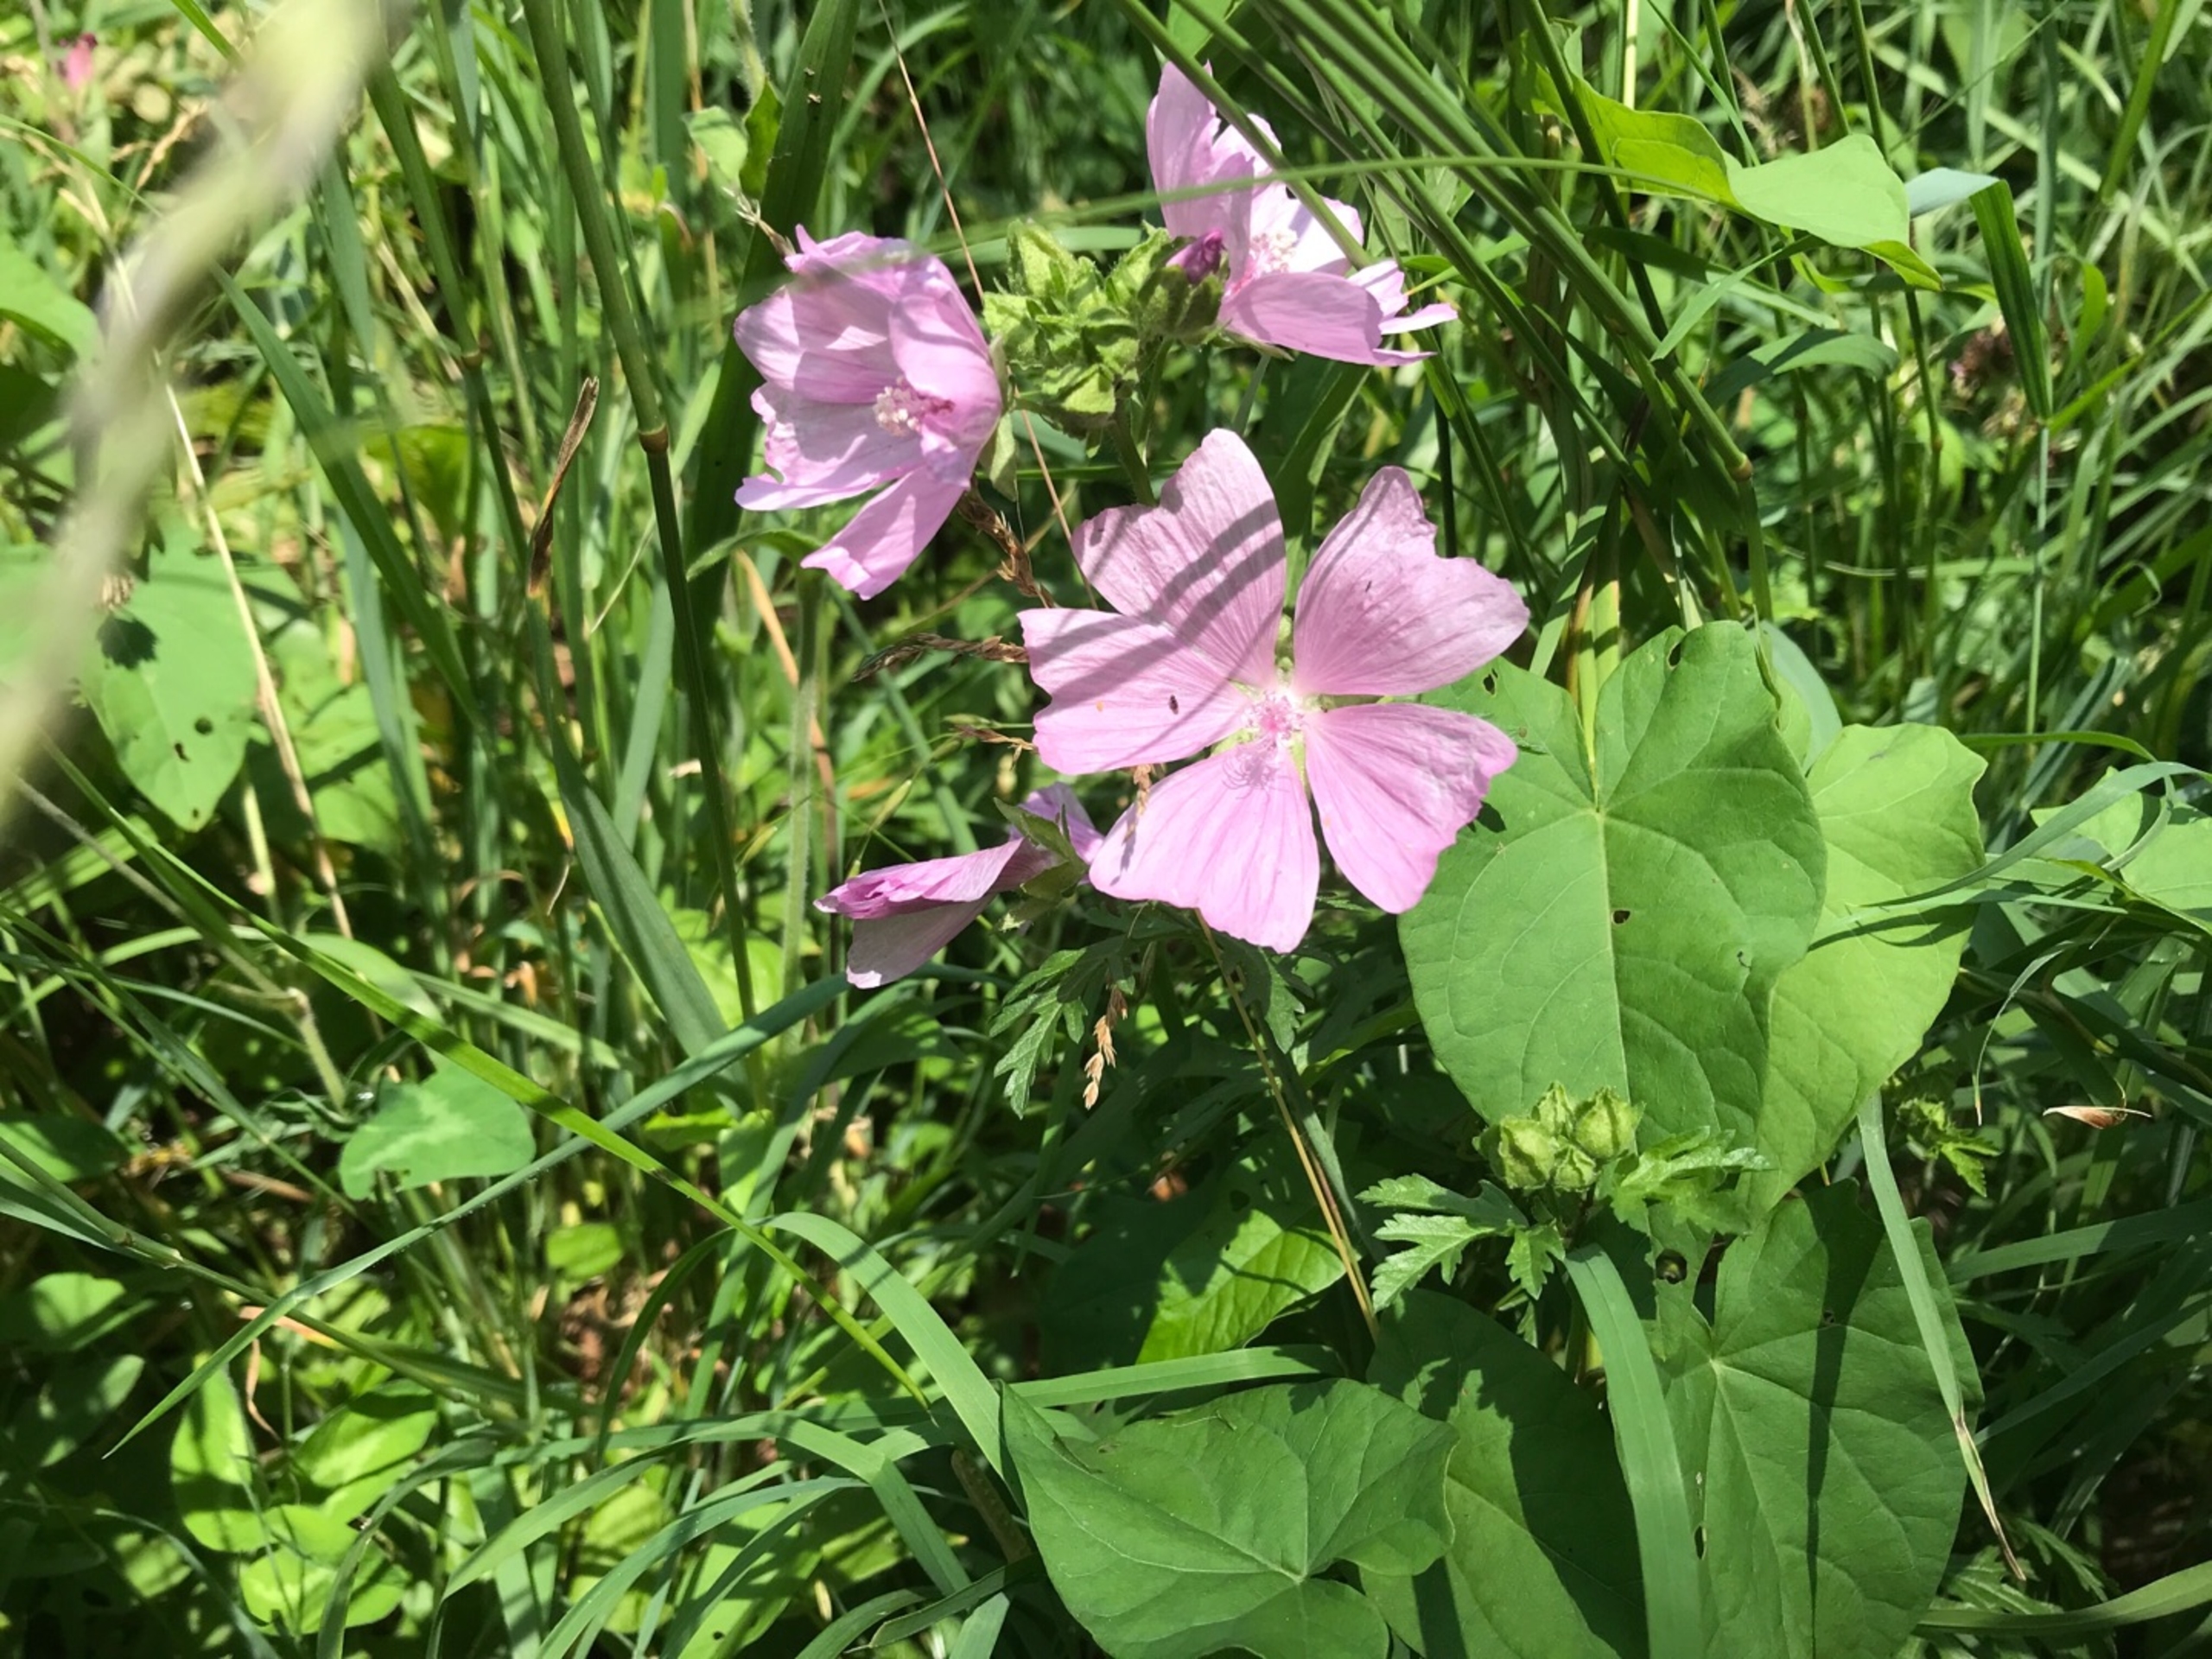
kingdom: Plantae
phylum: Tracheophyta
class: Magnoliopsida
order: Malvales
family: Malvaceae
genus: Malva
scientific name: Malva moschata
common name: Moskus-katost
